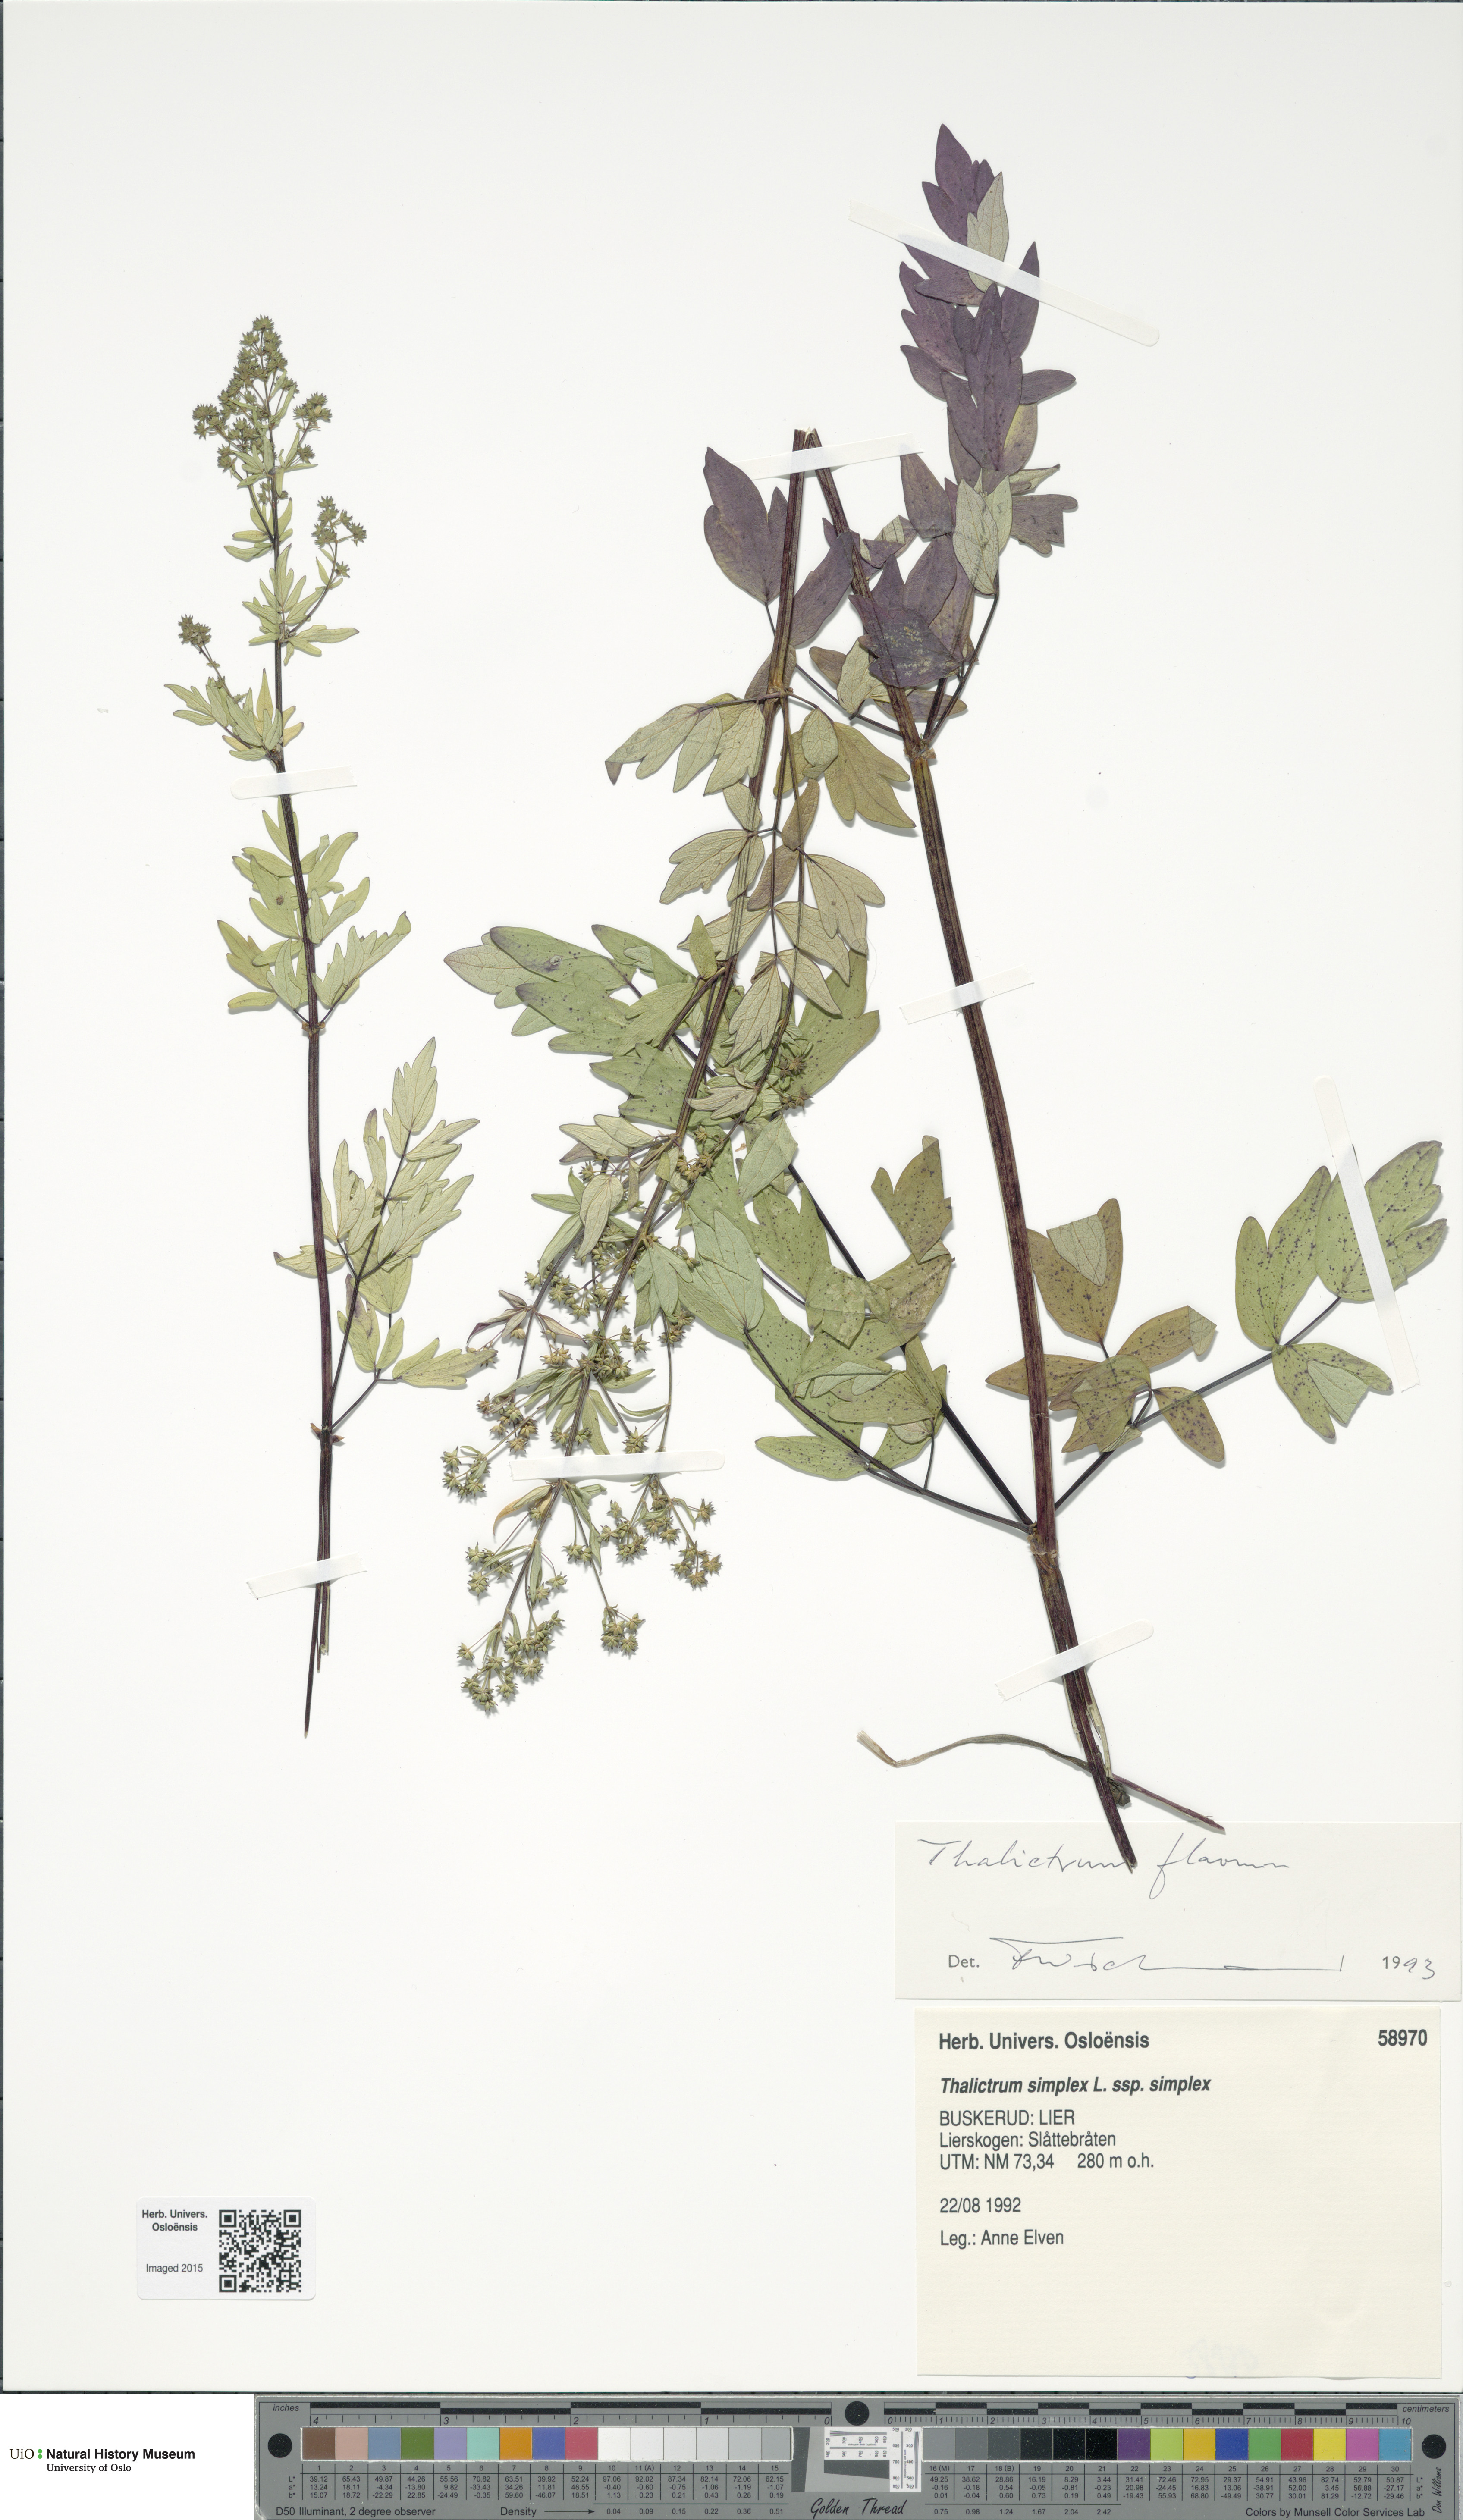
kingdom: Plantae
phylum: Tracheophyta
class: Magnoliopsida
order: Ranunculales
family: Ranunculaceae
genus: Thalictrum
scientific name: Thalictrum flavum
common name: Common meadow-rue
